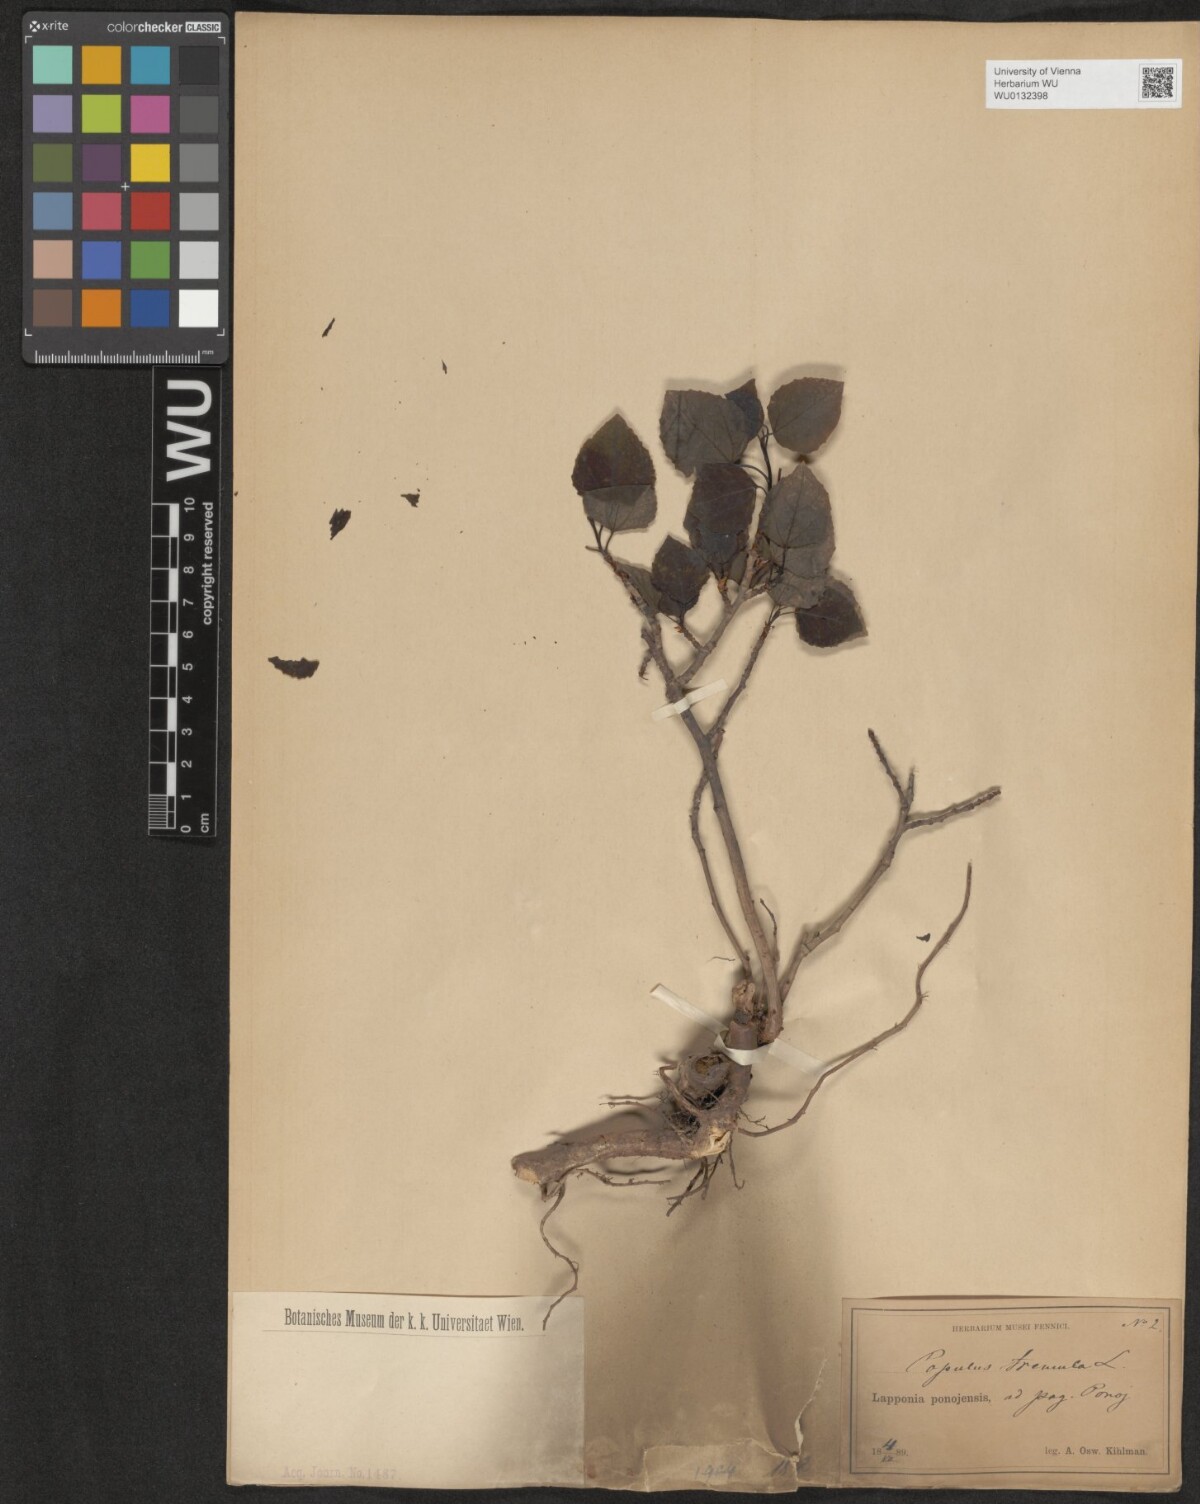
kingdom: Plantae
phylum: Tracheophyta
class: Magnoliopsida
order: Malpighiales
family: Salicaceae
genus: Populus
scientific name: Populus tremula
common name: European aspen
